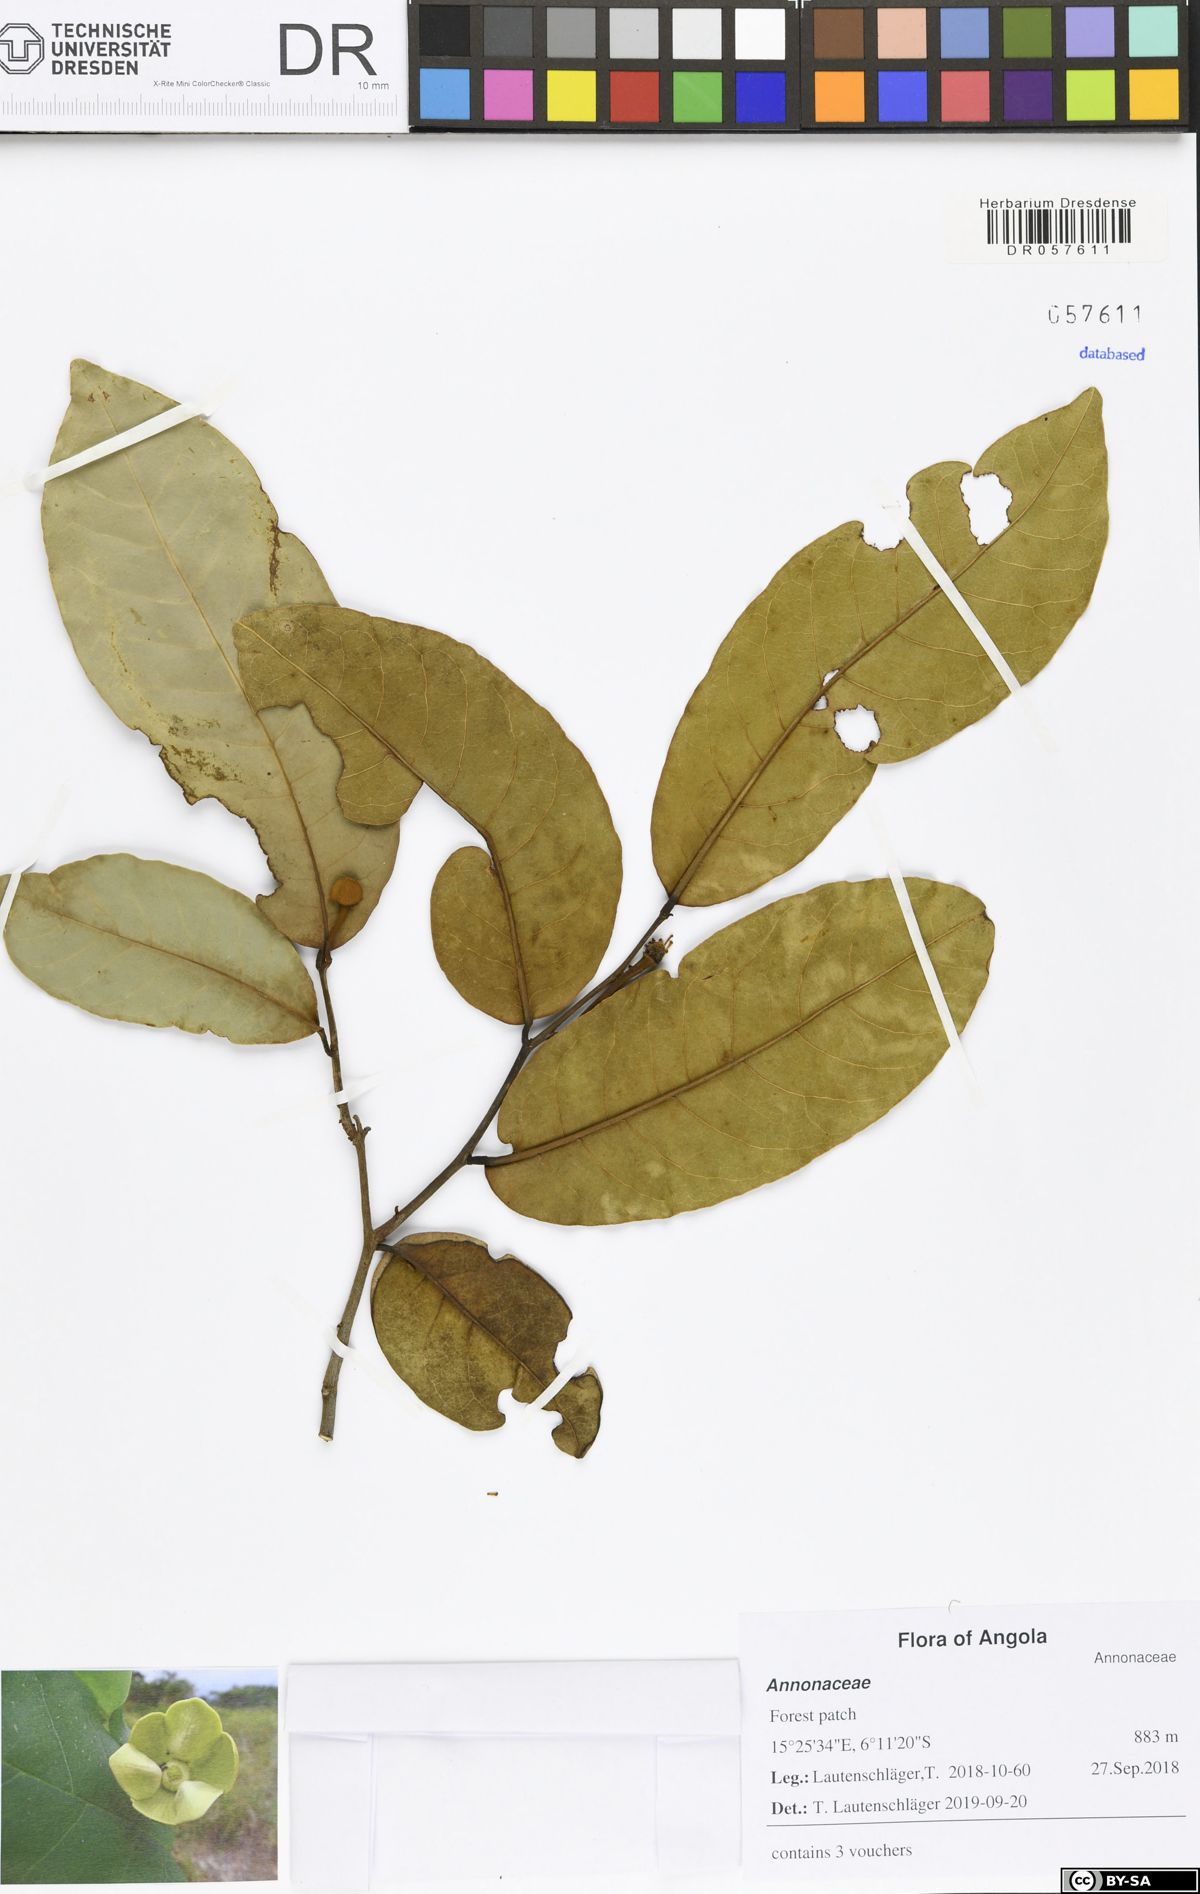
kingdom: Plantae
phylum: Tracheophyta
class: Magnoliopsida
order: Magnoliales
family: Annonaceae
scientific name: Annonaceae
